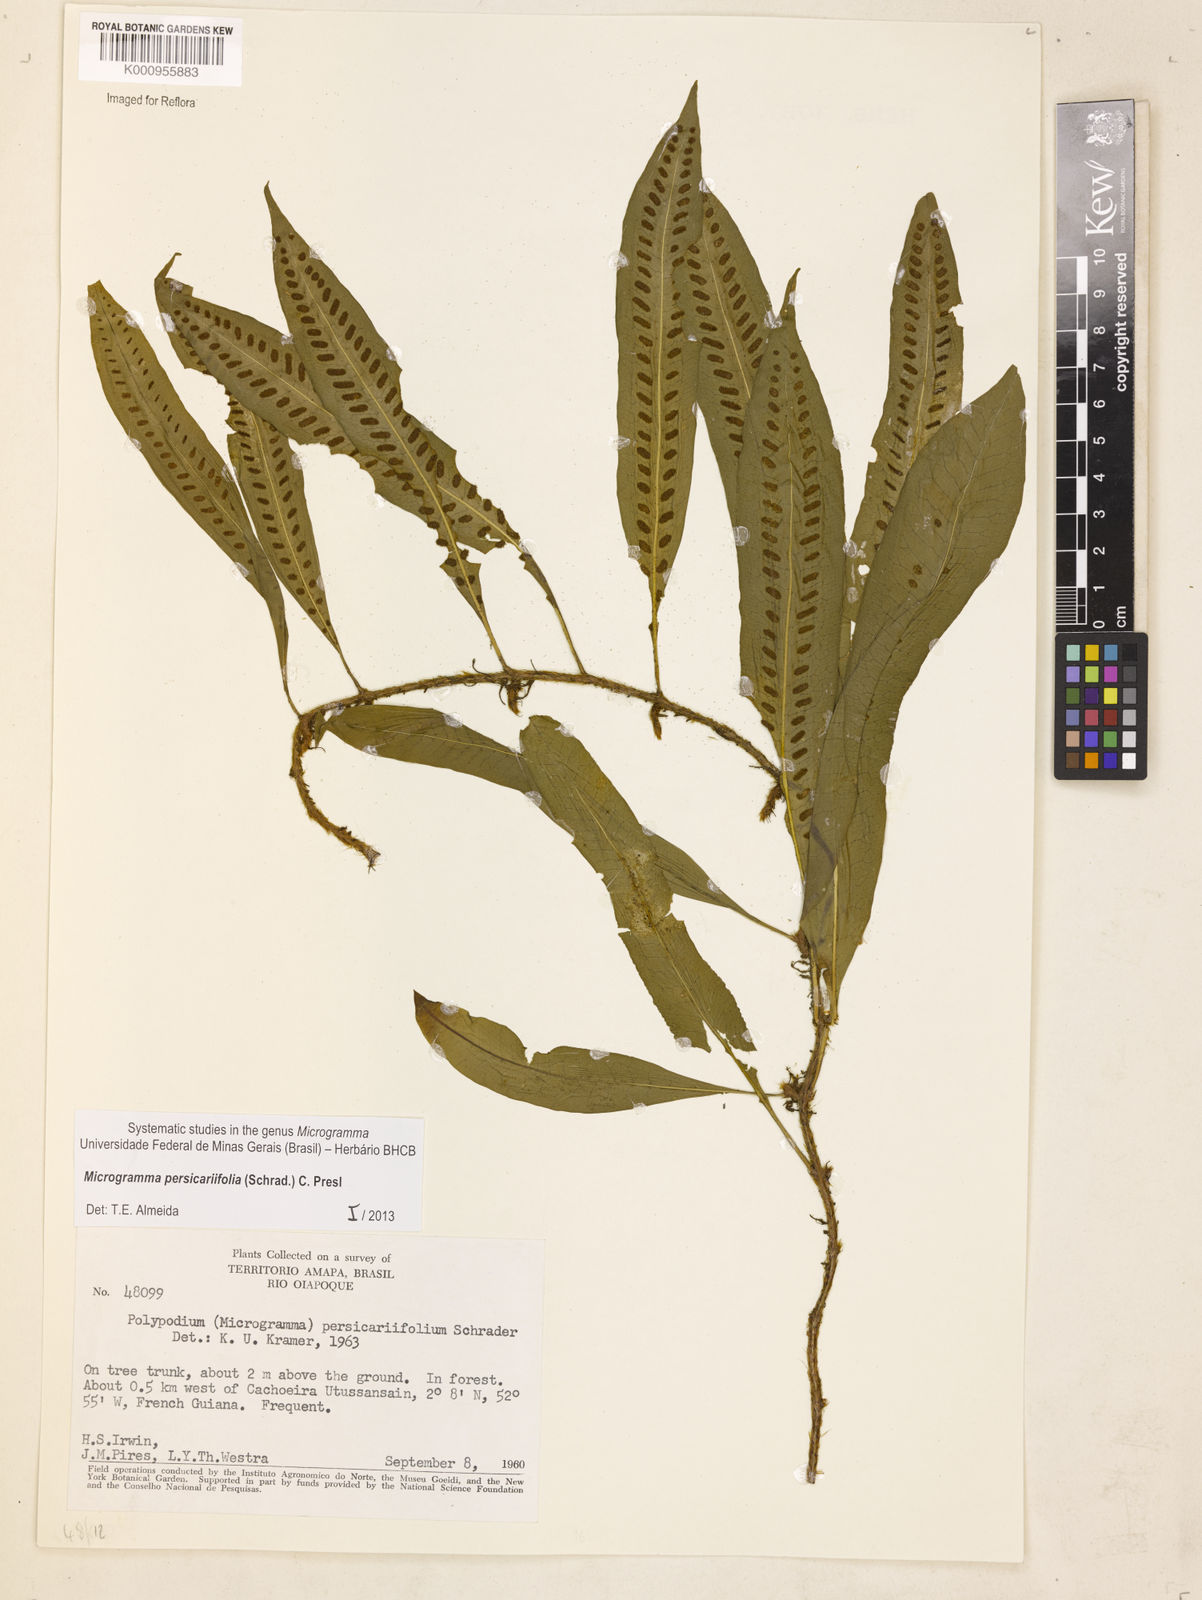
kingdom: Plantae
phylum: Tracheophyta
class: Polypodiopsida
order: Polypodiales
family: Polypodiaceae
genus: Microgramma
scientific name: Microgramma persicariifolia
